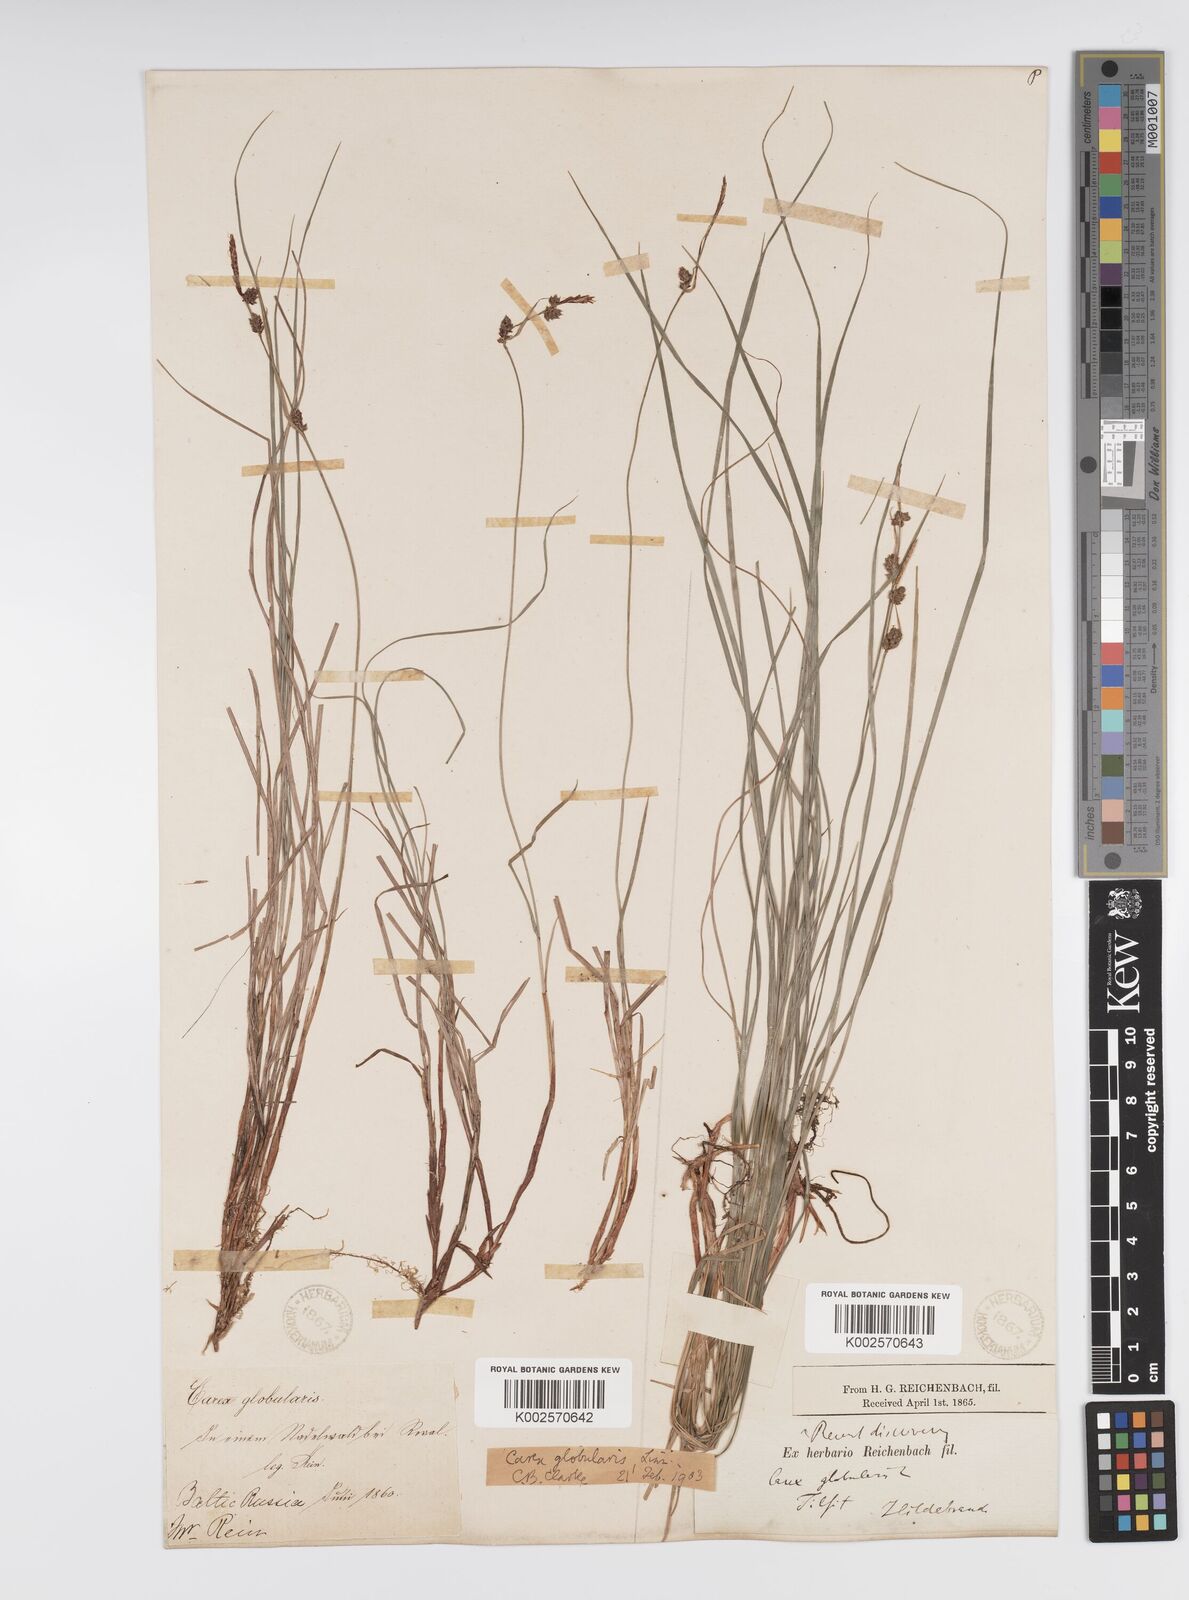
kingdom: Plantae
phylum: Tracheophyta
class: Liliopsida
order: Poales
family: Cyperaceae
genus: Carex
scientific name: Carex globularis
